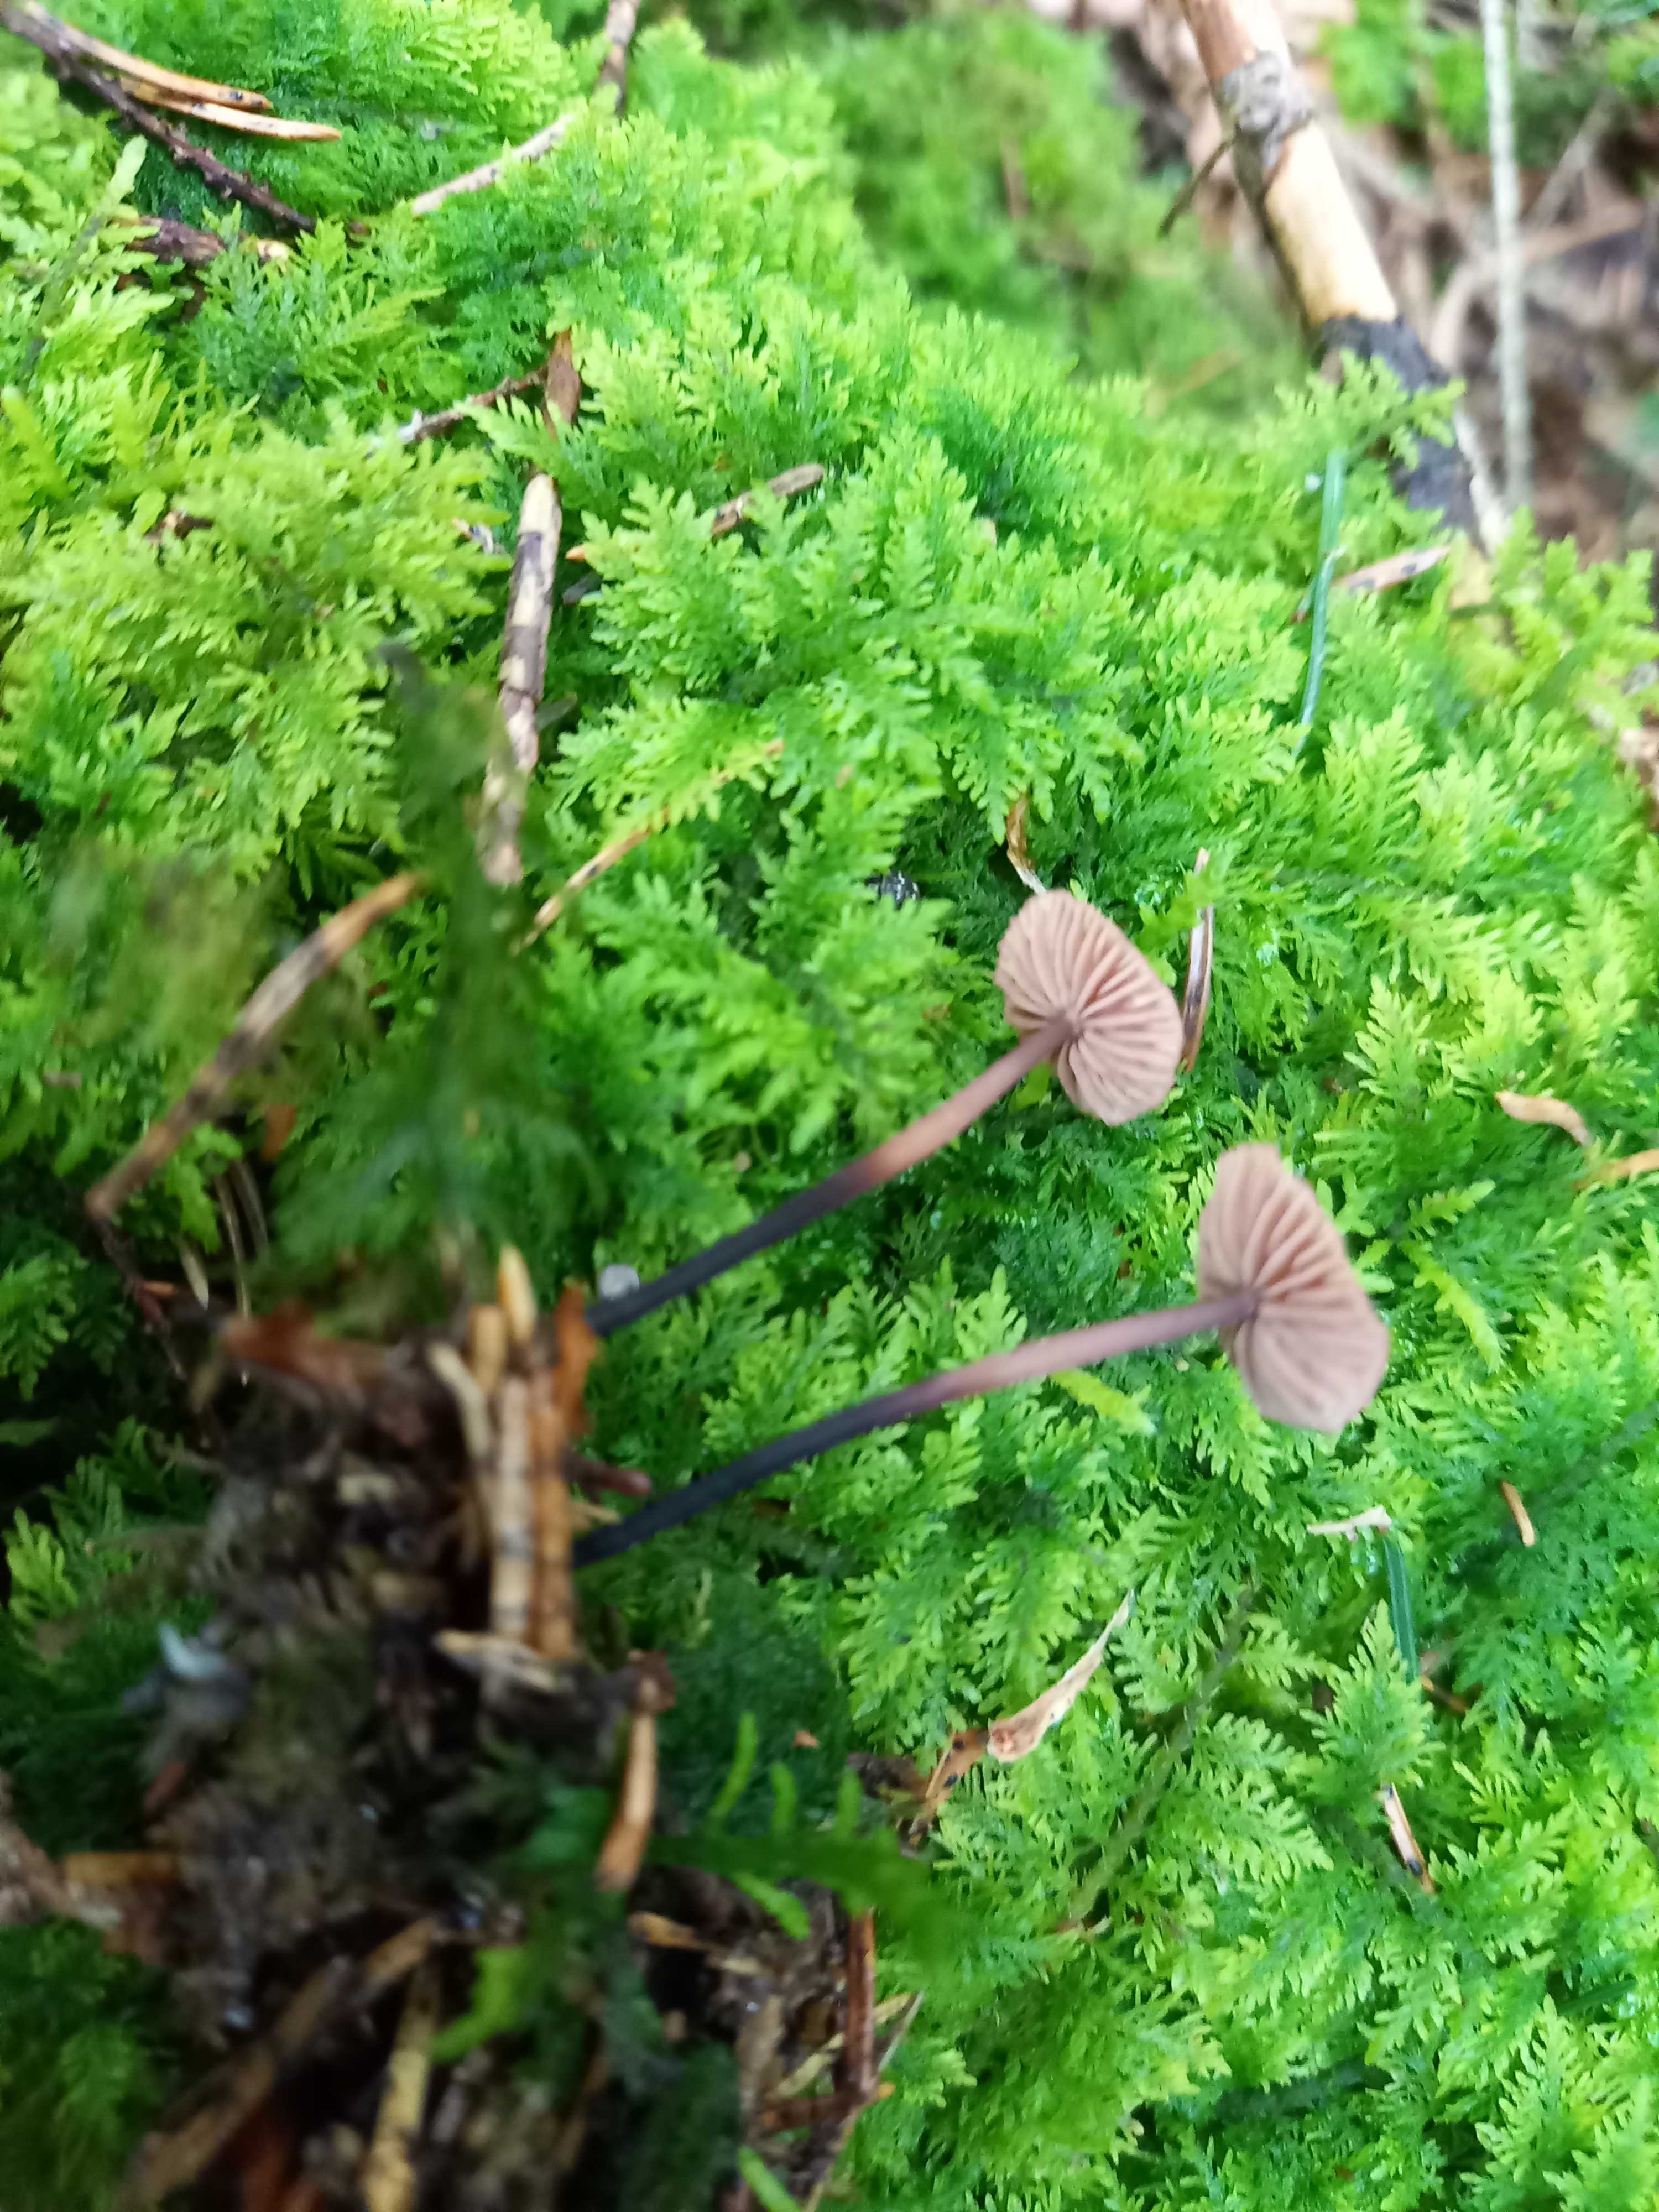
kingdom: Fungi
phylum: Basidiomycota
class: Agaricomycetes
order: Agaricales
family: Omphalotaceae
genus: Paragymnopus
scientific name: Paragymnopus perforans
